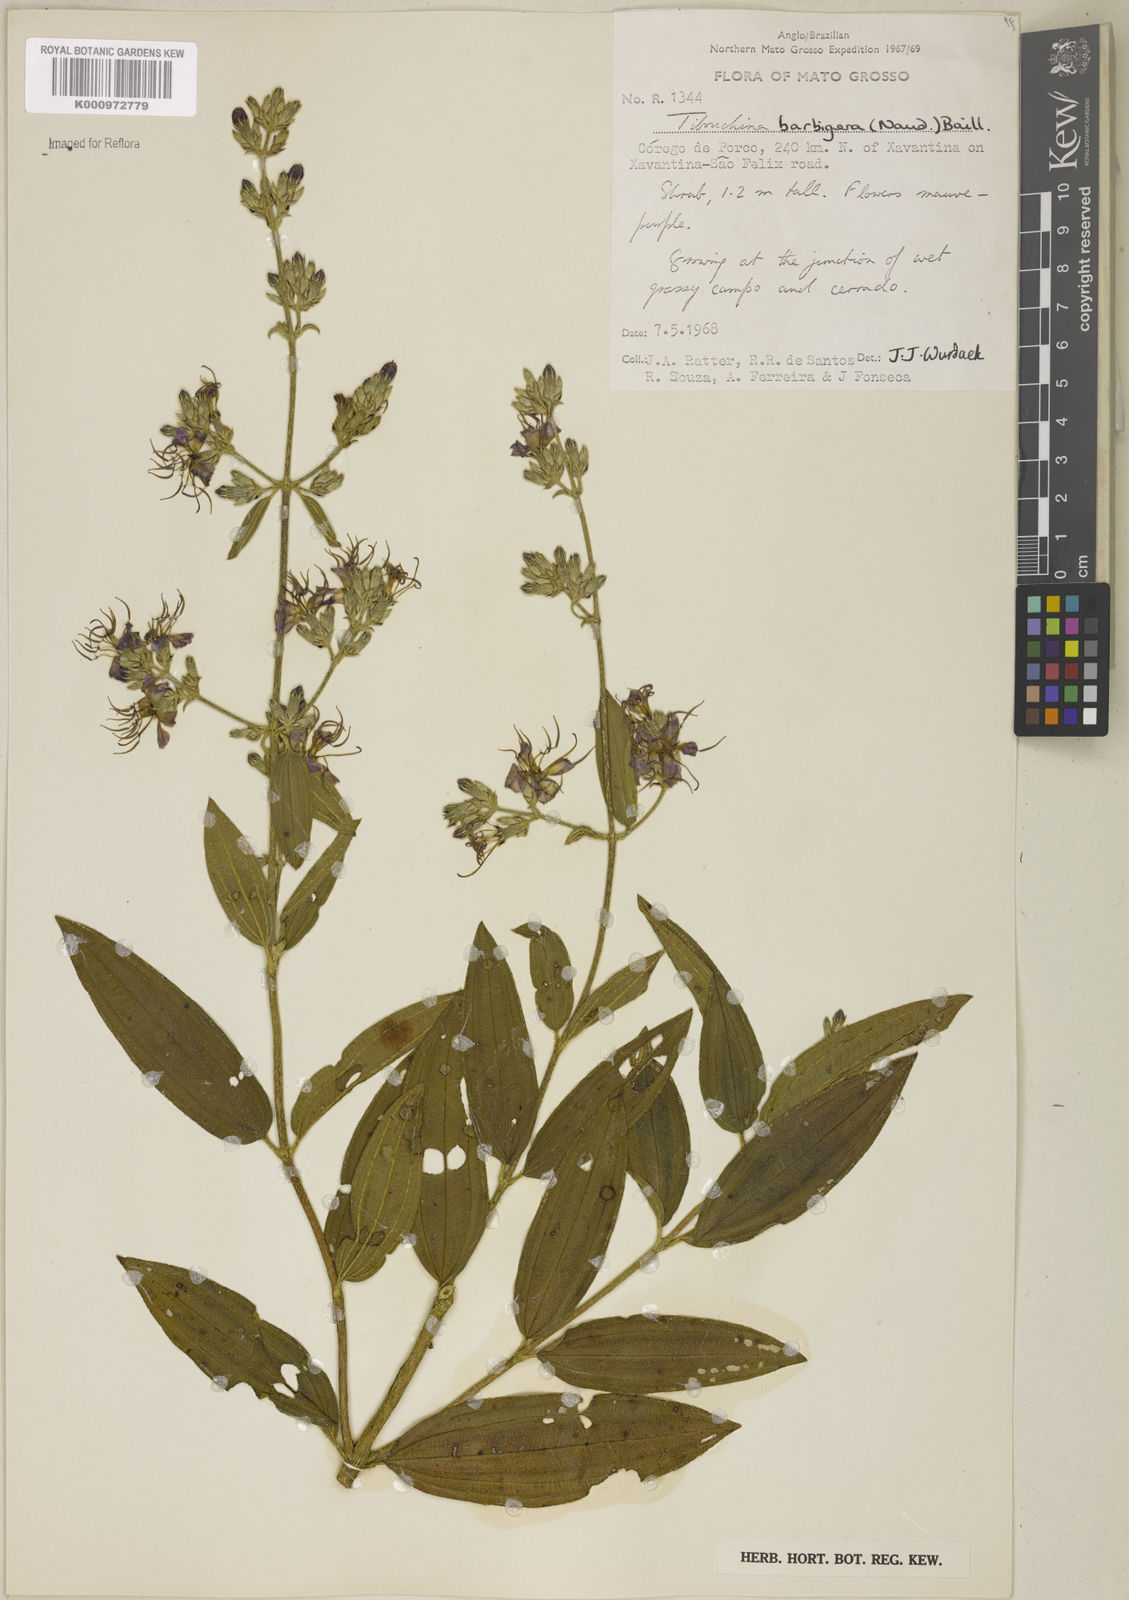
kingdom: Plantae
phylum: Tracheophyta
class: Magnoliopsida
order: Myrtales
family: Melastomataceae
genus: Pleroma
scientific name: Pleroma barbigerum
